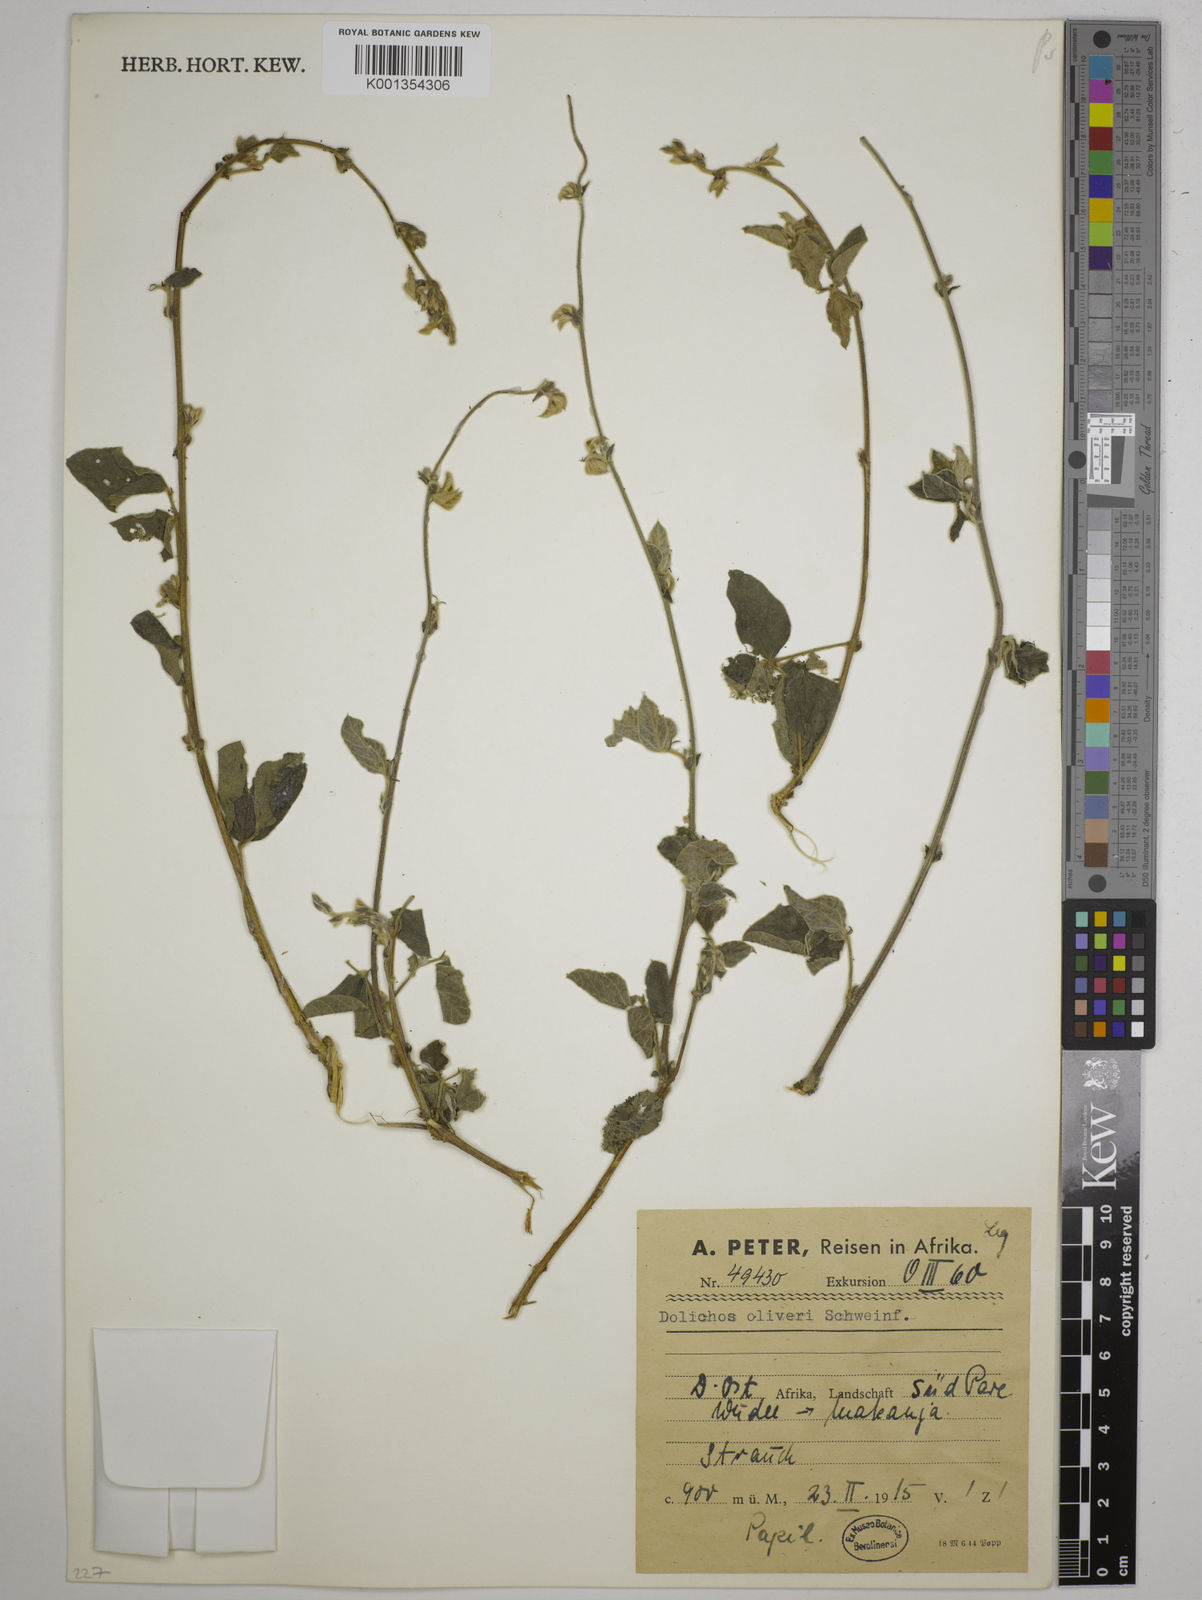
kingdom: Plantae
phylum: Tracheophyta
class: Magnoliopsida
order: Fabales
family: Fabaceae
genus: Dolichos
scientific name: Dolichos oliveri
